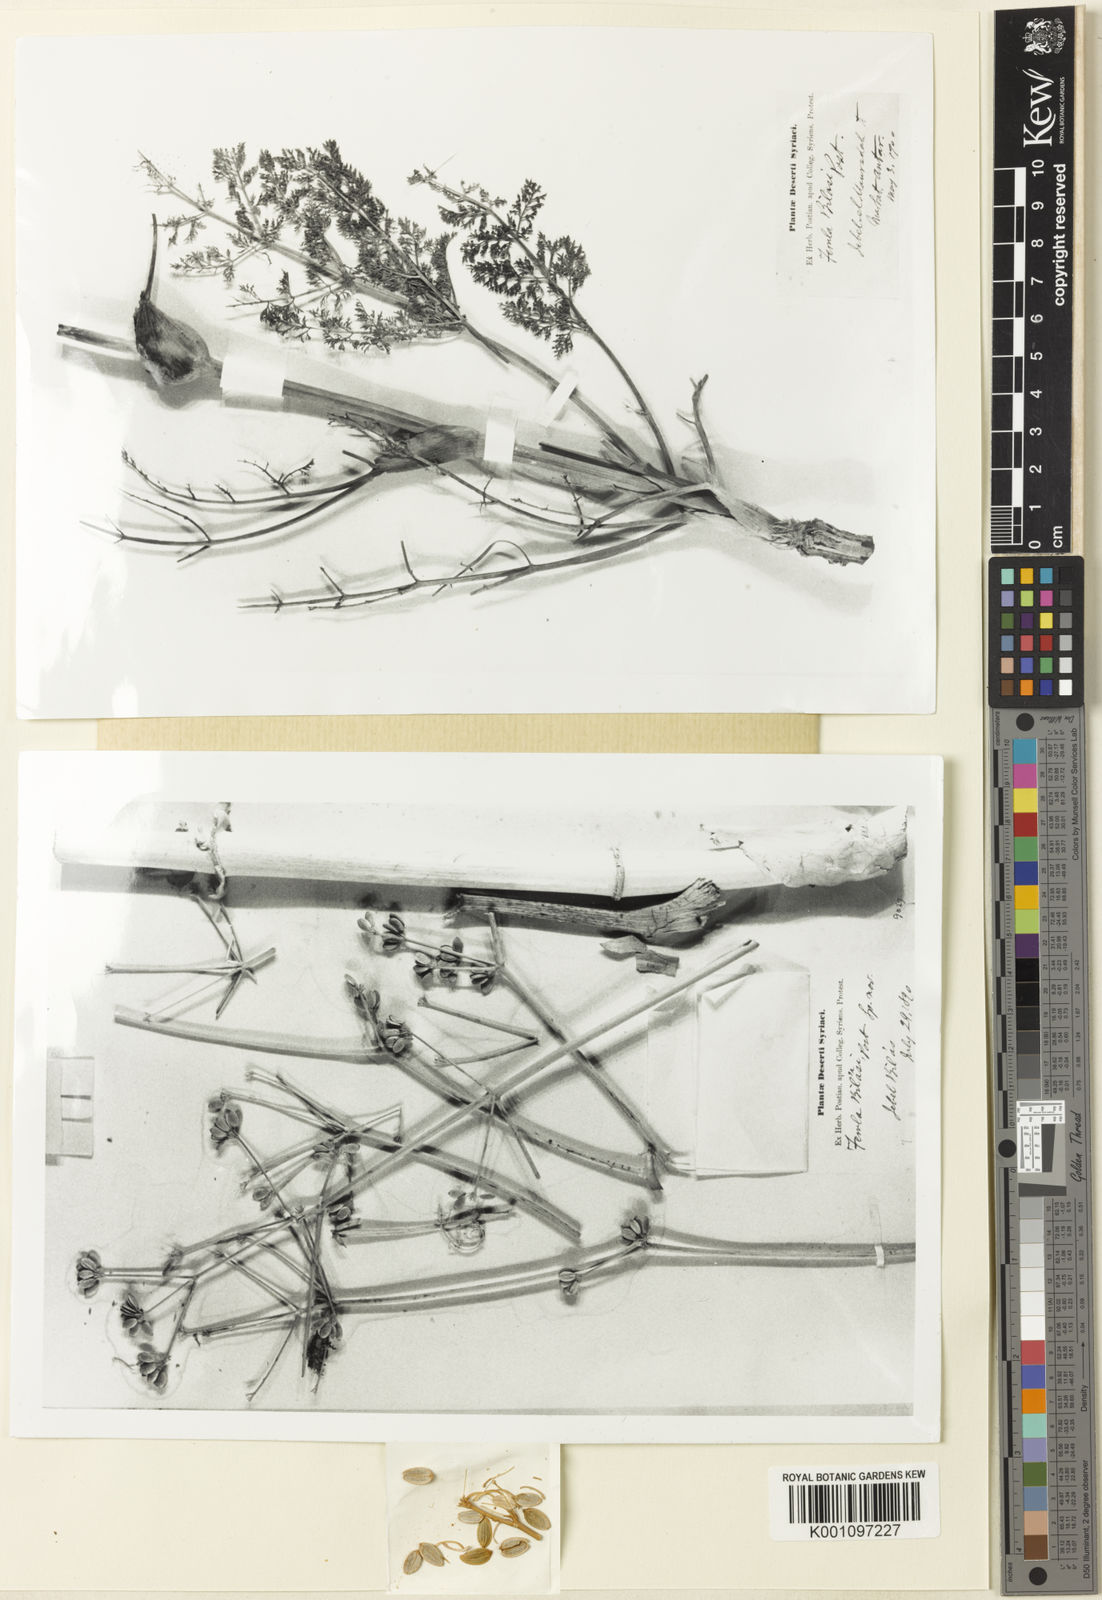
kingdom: Plantae
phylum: Tracheophyta
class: Magnoliopsida
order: Apiales
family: Apiaceae
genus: Ferula
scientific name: Ferula bilasi
